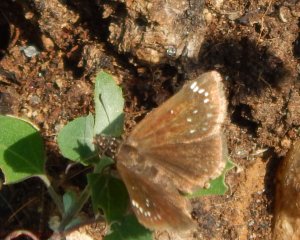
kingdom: Animalia
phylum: Arthropoda
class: Insecta
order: Lepidoptera
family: Hesperiidae
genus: Pholisora
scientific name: Pholisora catullus
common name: Common Sootywing
